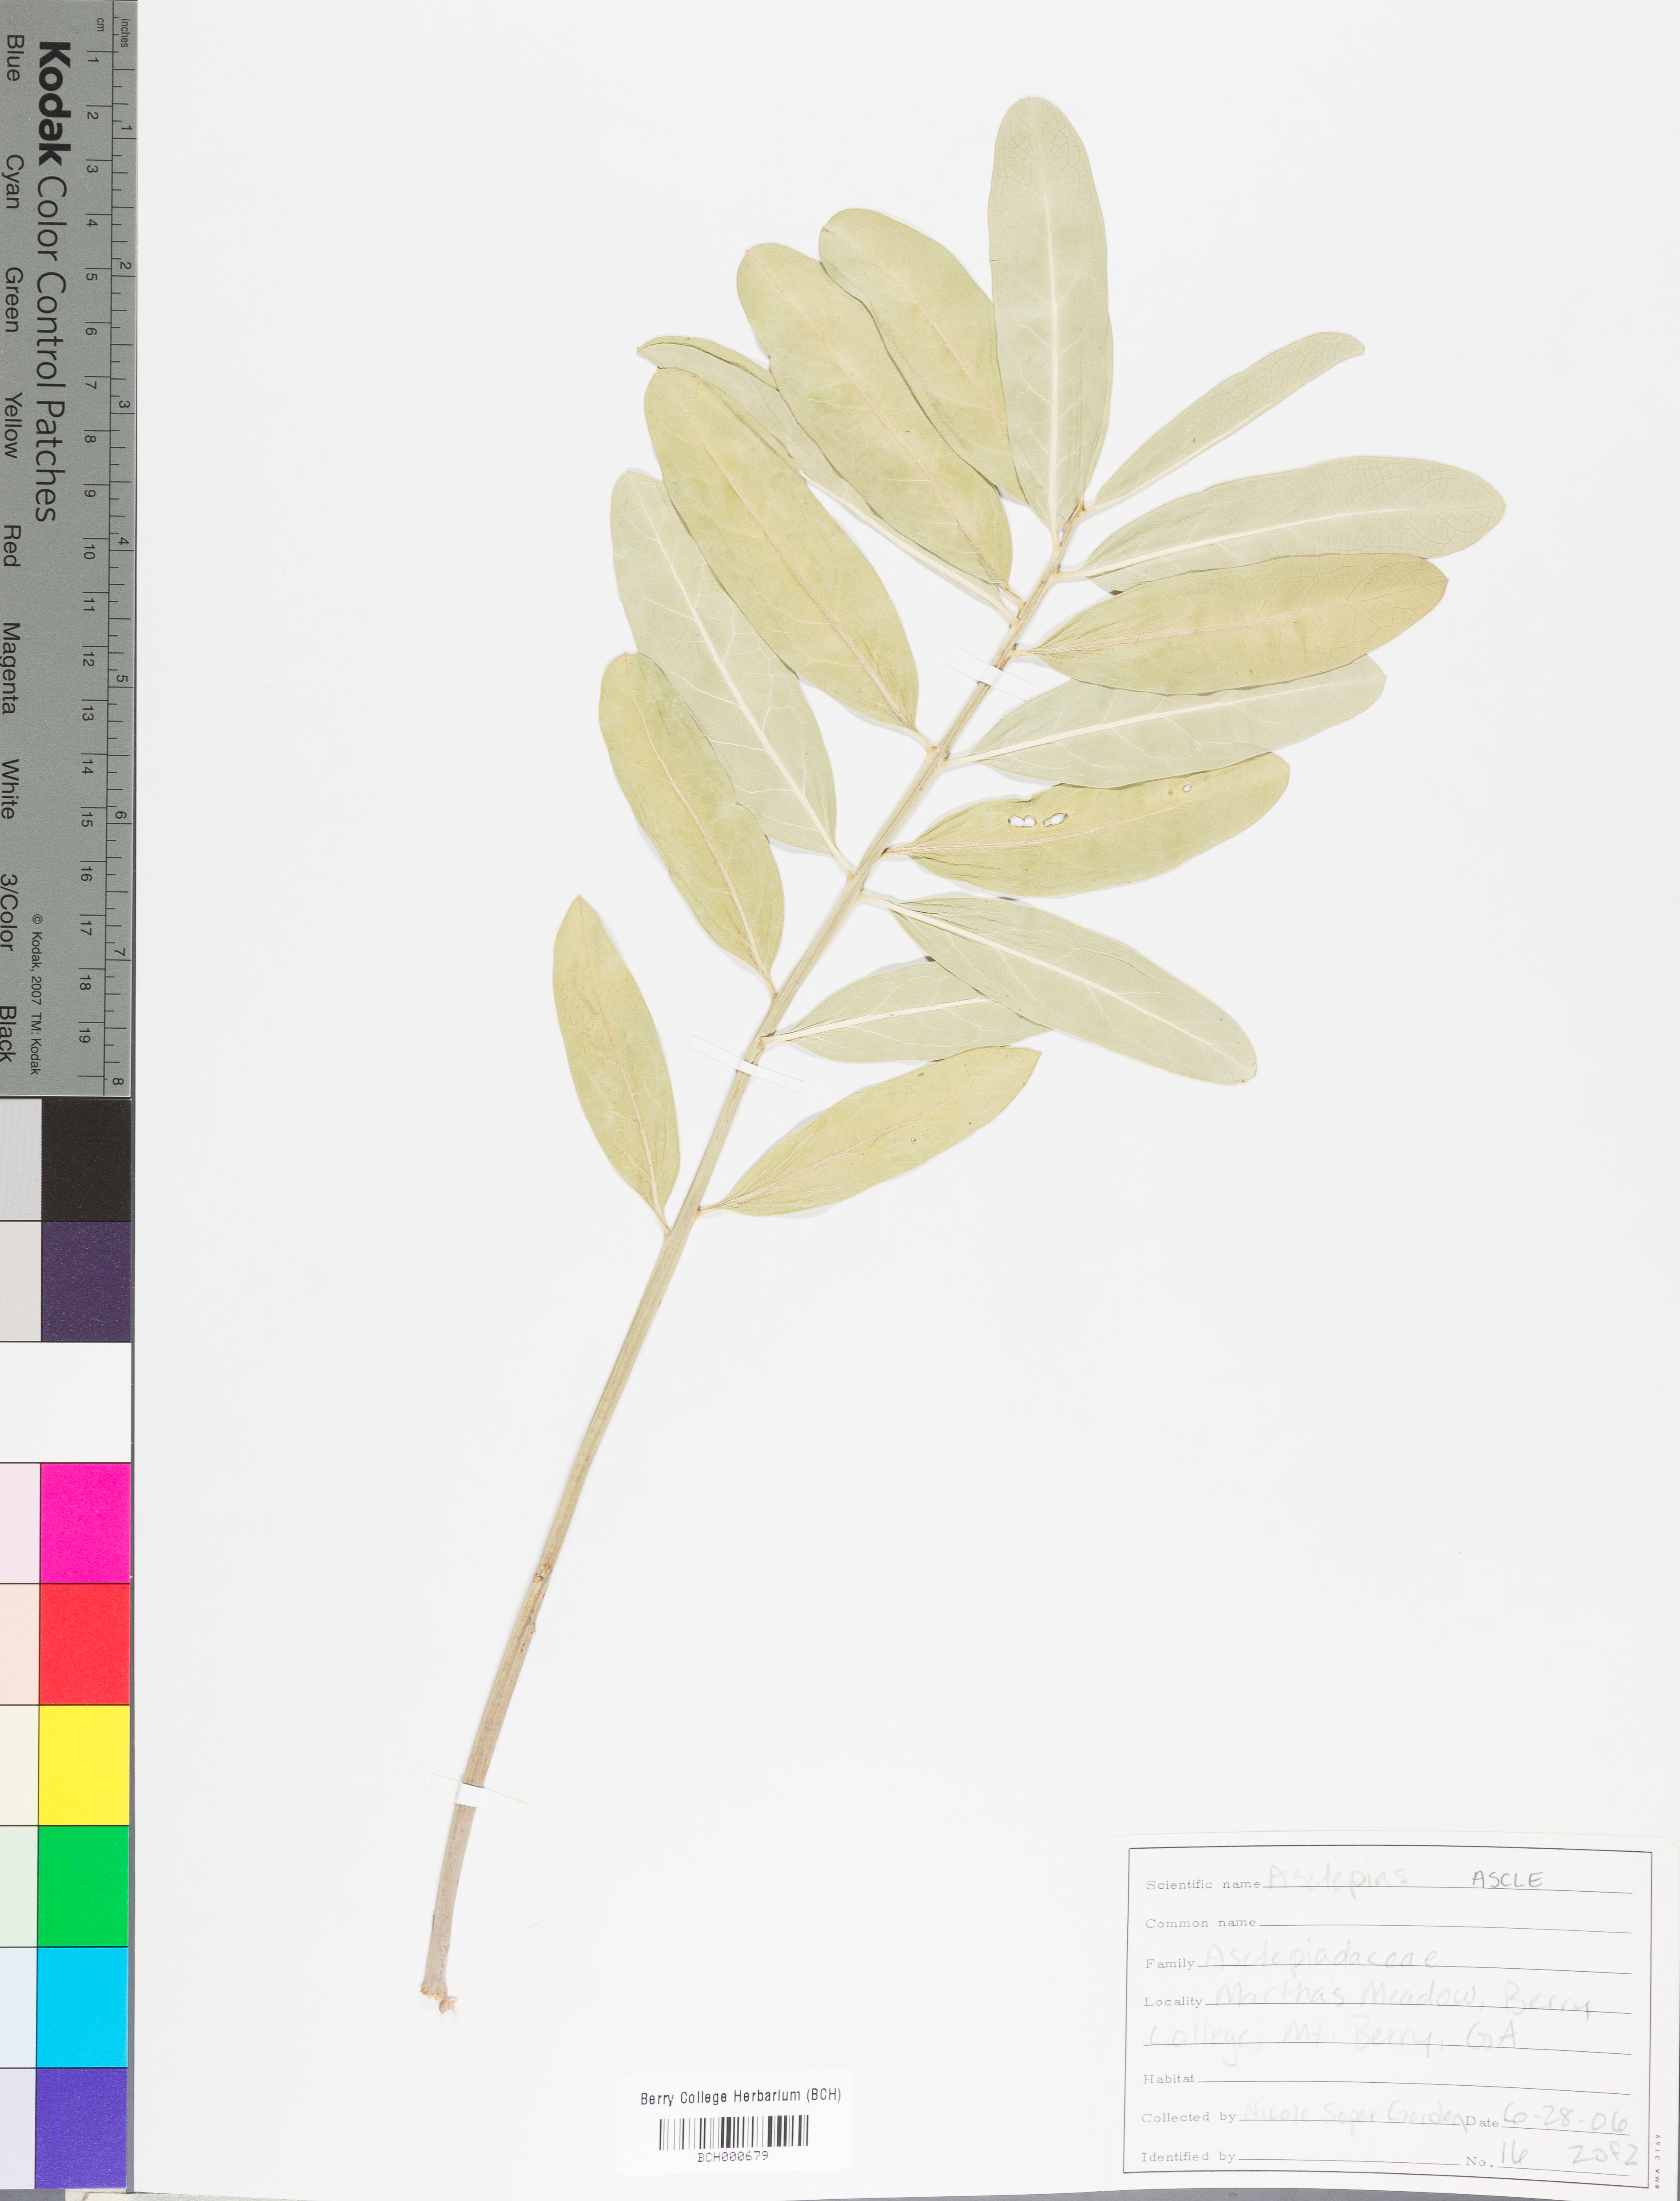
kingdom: Plantae
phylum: Tracheophyta
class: Magnoliopsida
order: Gentianales
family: Apocynaceae
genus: Asclepias
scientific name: Asclepias
